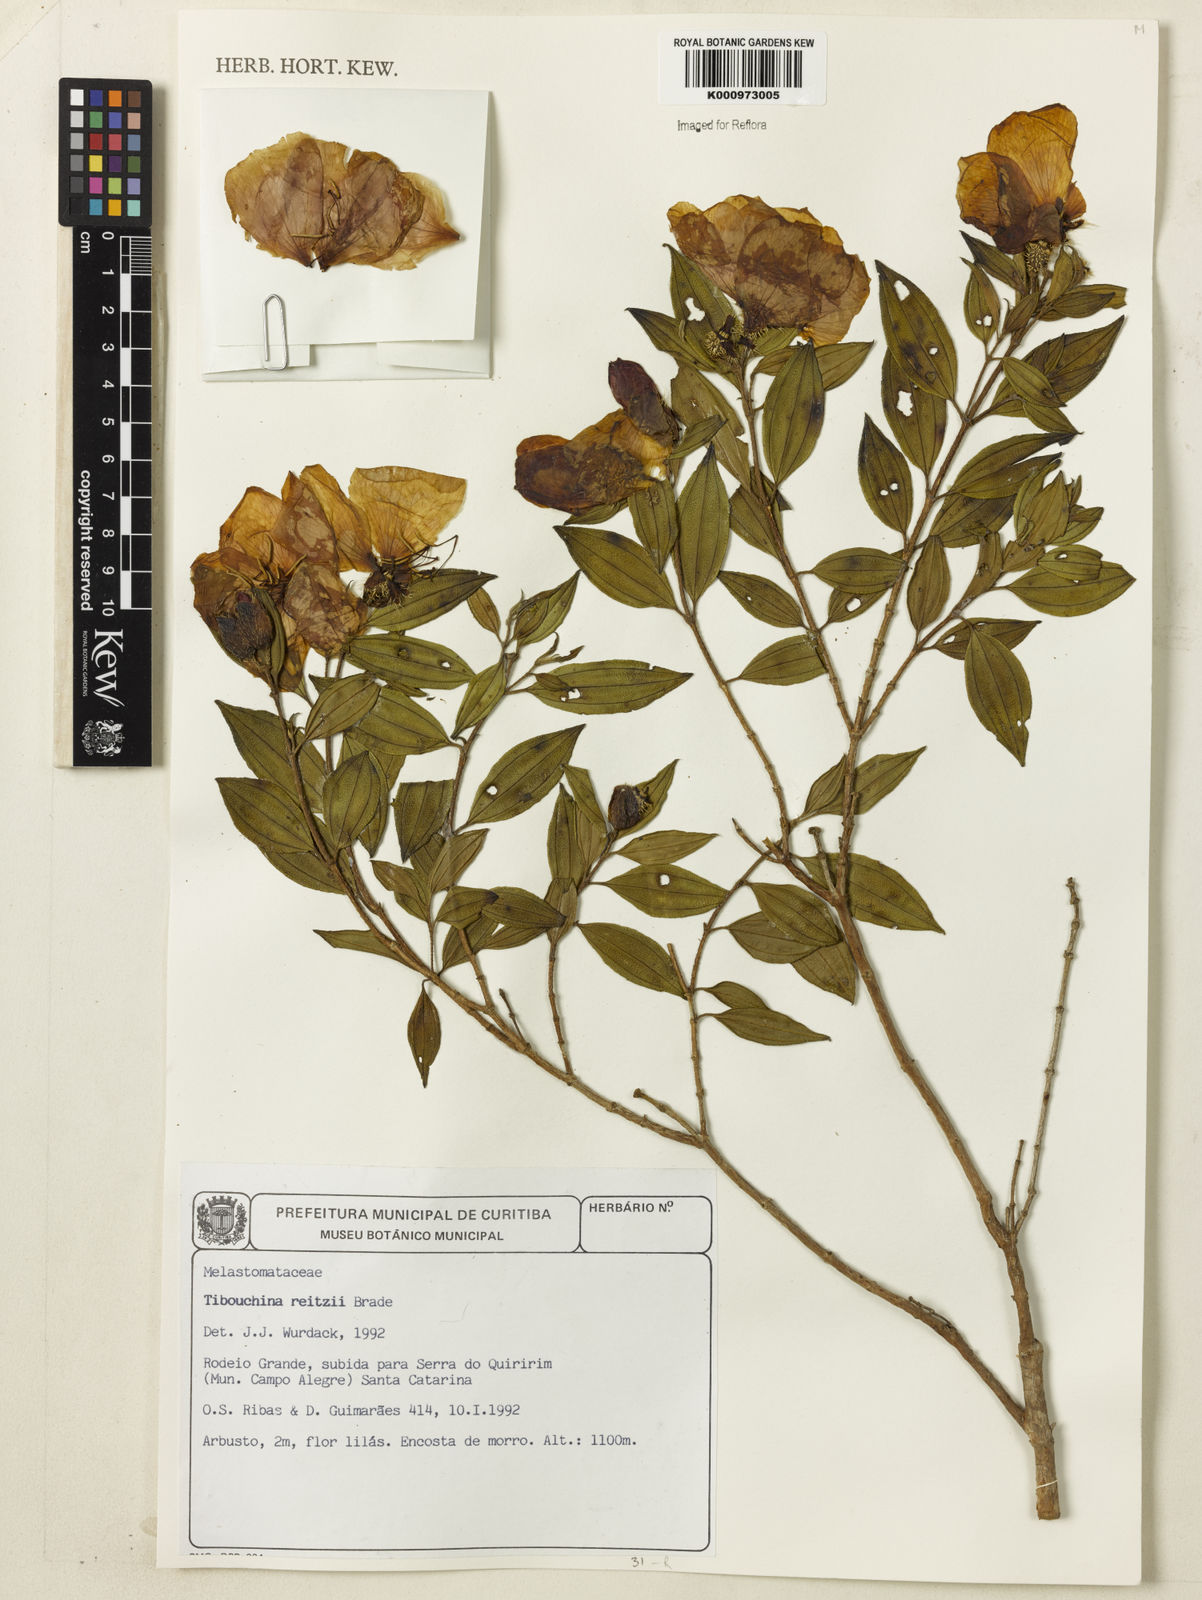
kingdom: Plantae
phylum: Tracheophyta
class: Magnoliopsida
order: Myrtales
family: Melastomataceae
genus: Pleroma
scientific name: Pleroma reitzii
